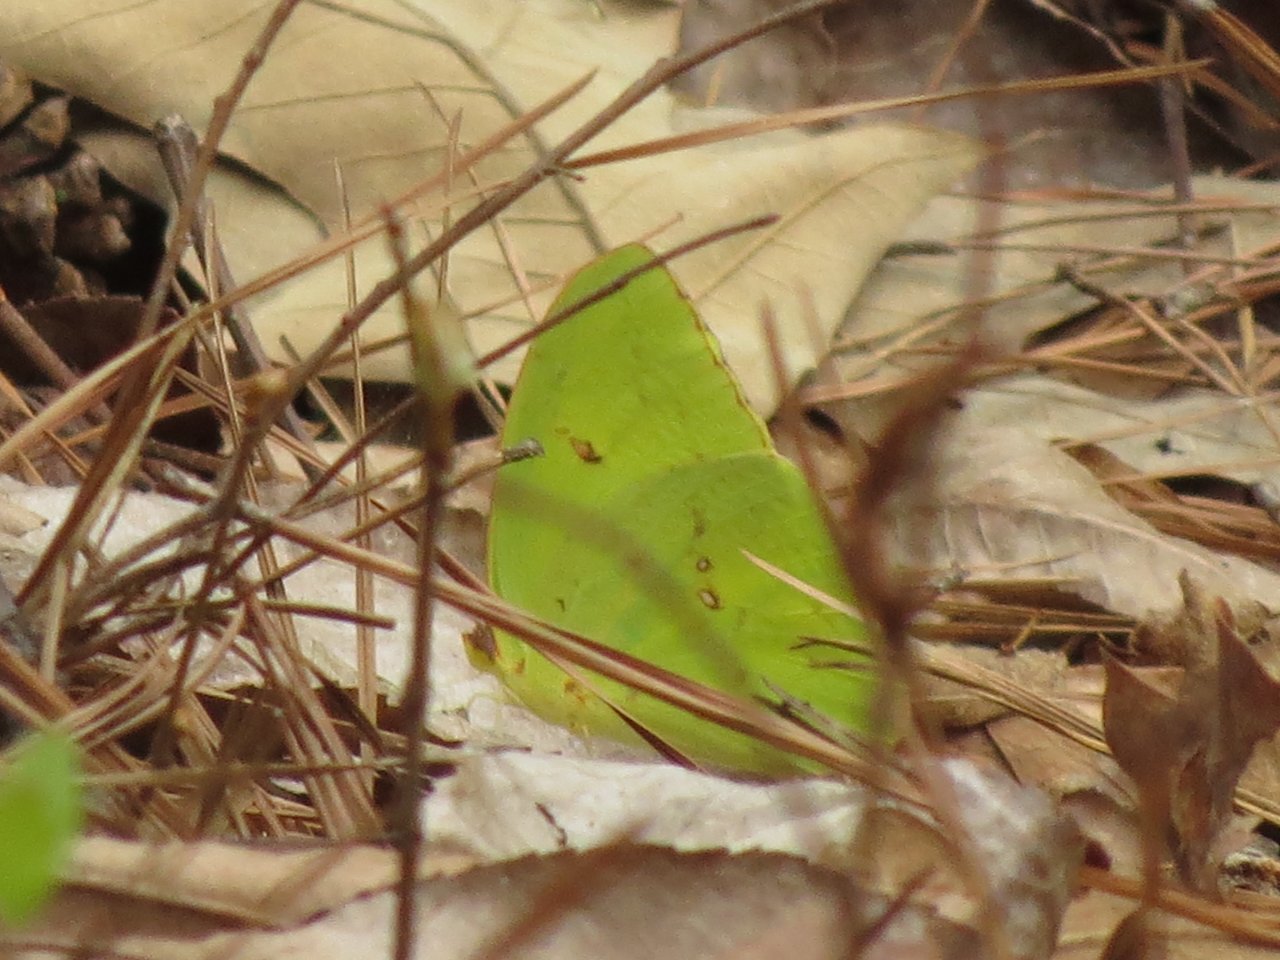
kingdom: Animalia
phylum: Arthropoda
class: Insecta
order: Lepidoptera
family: Pieridae
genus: Phoebis
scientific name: Phoebis sennae
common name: Cloudless Sulphur
